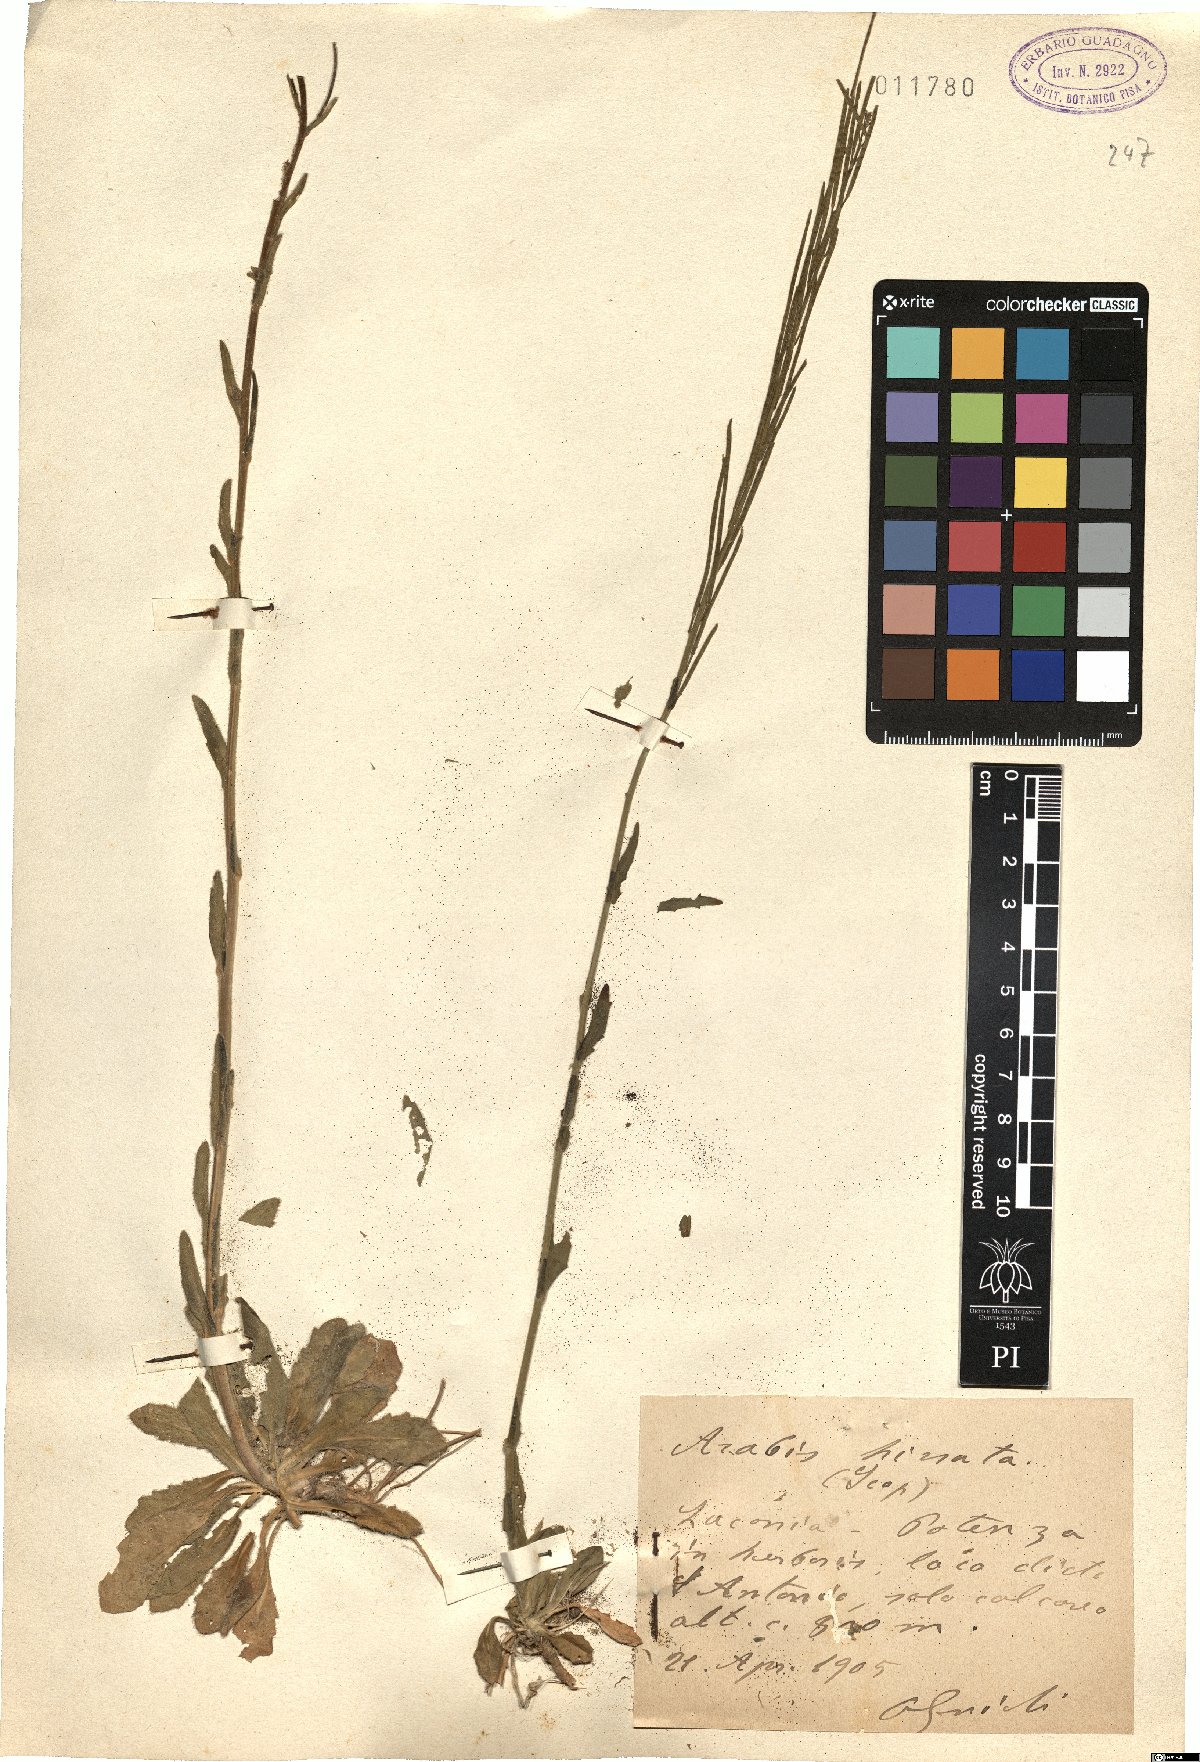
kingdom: Plantae
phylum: Tracheophyta
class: Magnoliopsida
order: Brassicales
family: Brassicaceae
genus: Arabis
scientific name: Arabis hirsuta
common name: Hairy rock-cress
